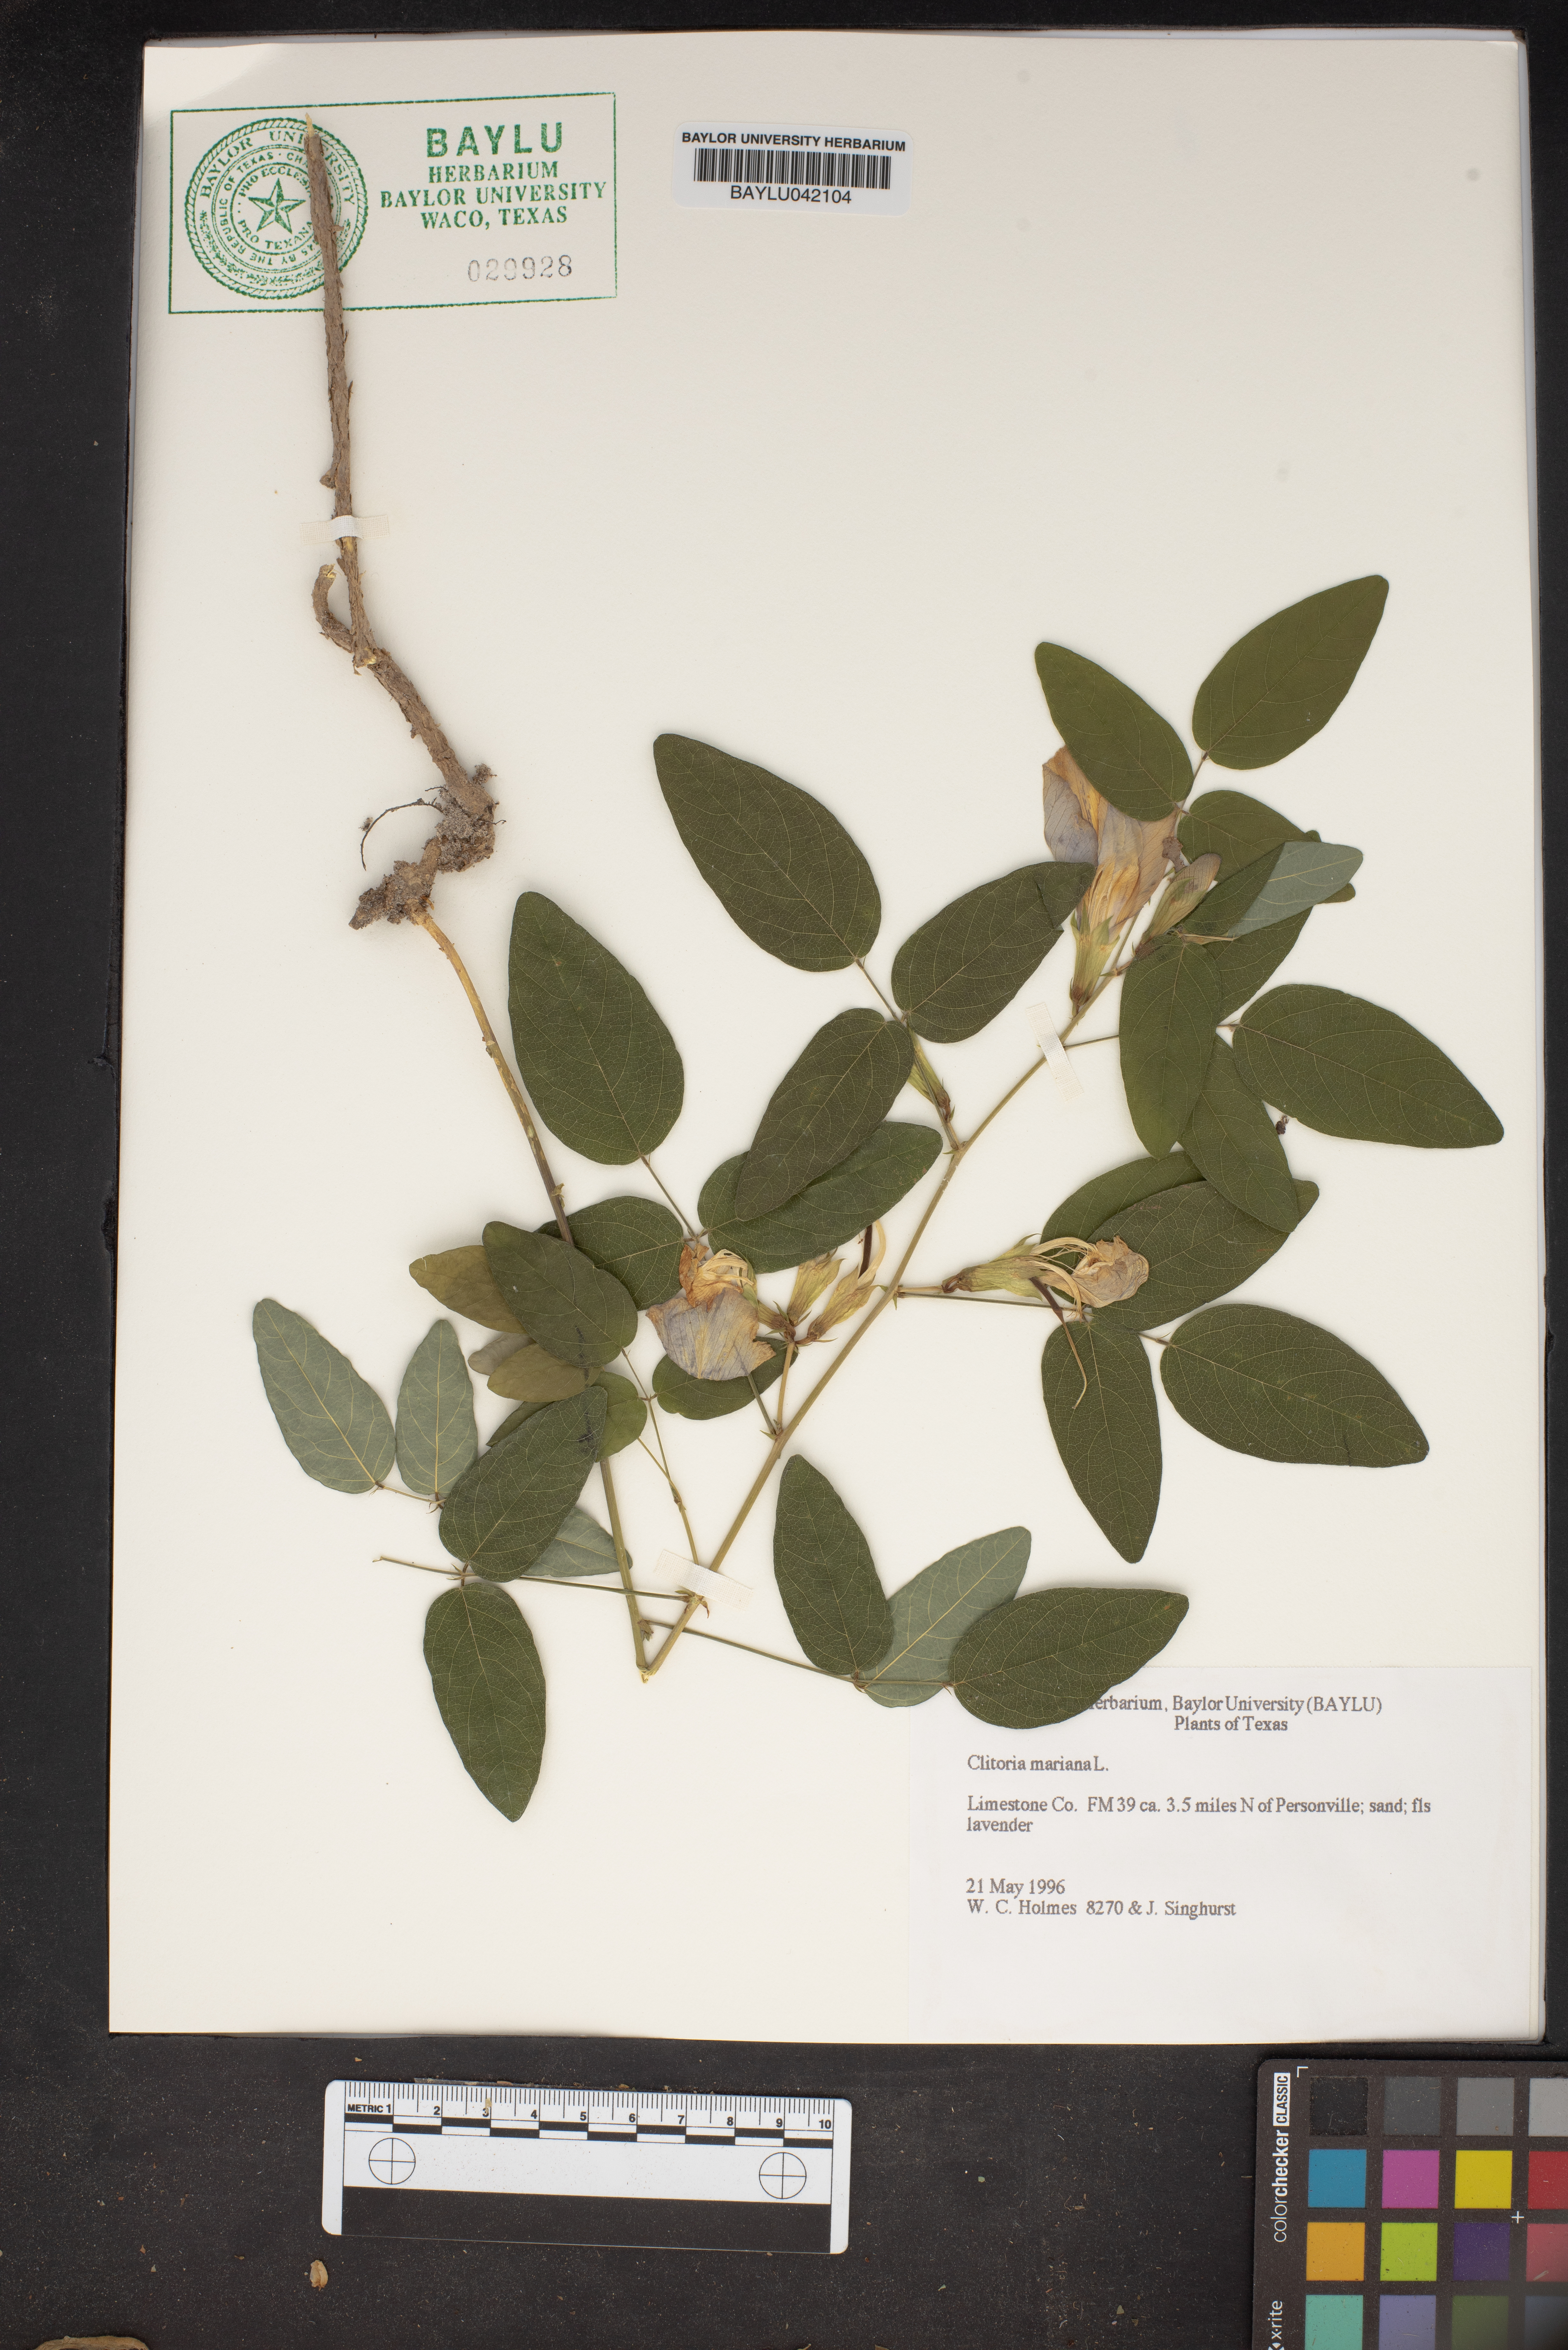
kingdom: Plantae
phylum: Tracheophyta
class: Magnoliopsida
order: Fabales
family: Fabaceae
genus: Clitoria
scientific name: Clitoria mariana
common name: Butterfly-pea
